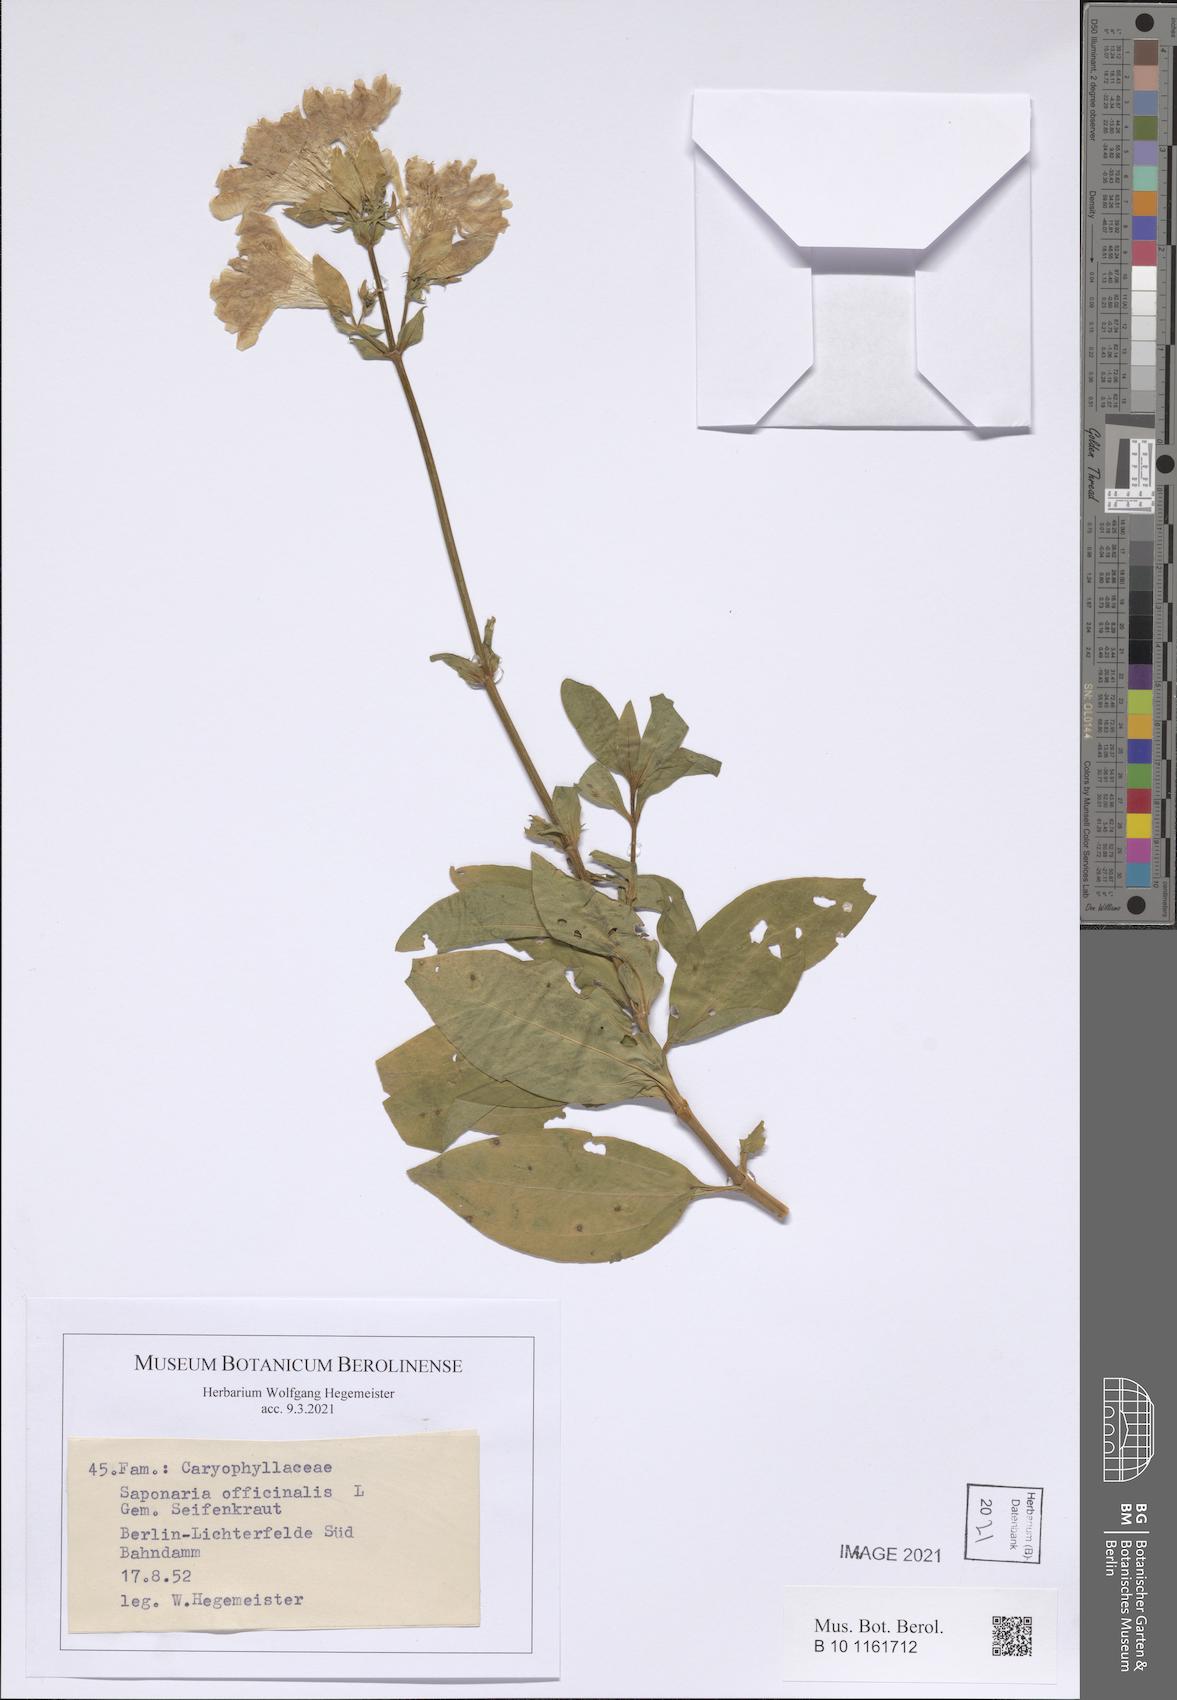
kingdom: Plantae
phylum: Tracheophyta
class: Magnoliopsida
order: Caryophyllales
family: Caryophyllaceae
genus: Saponaria
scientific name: Saponaria officinalis
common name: Soapwort
